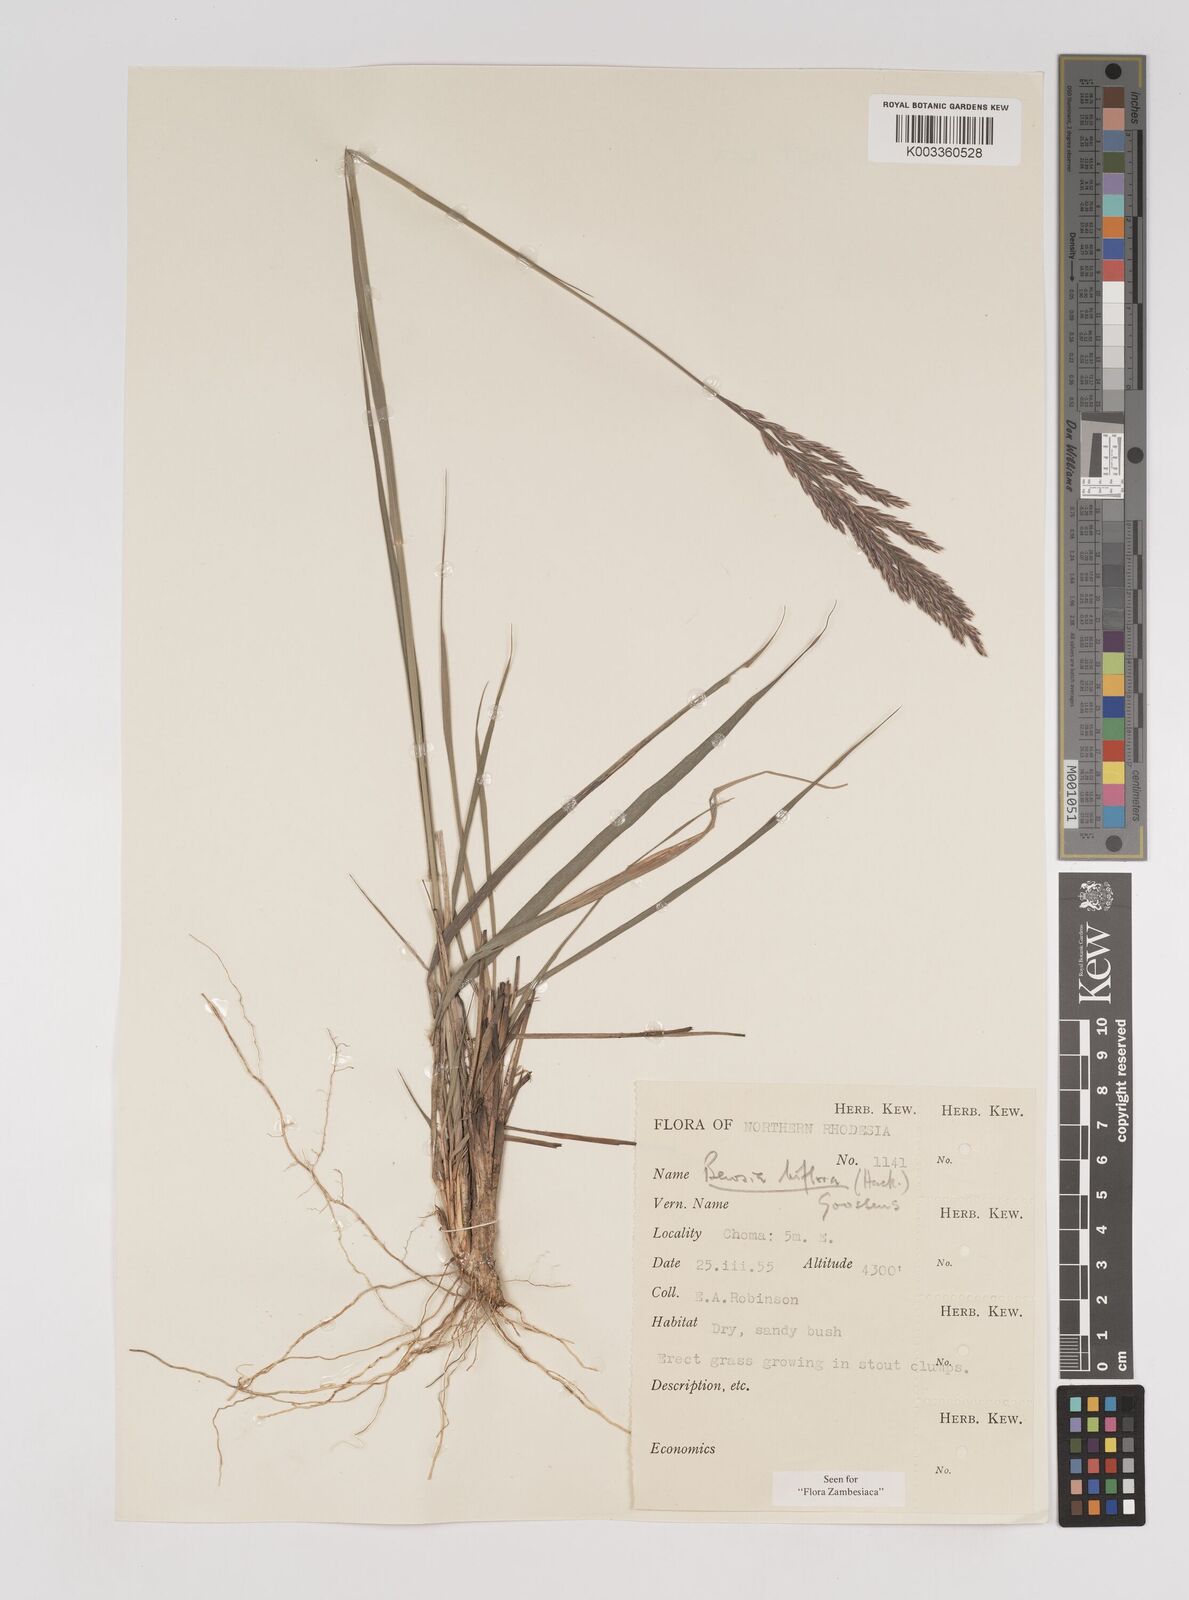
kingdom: Plantae
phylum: Tracheophyta
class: Liliopsida
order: Poales
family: Poaceae
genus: Bewsia
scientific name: Bewsia biflora
